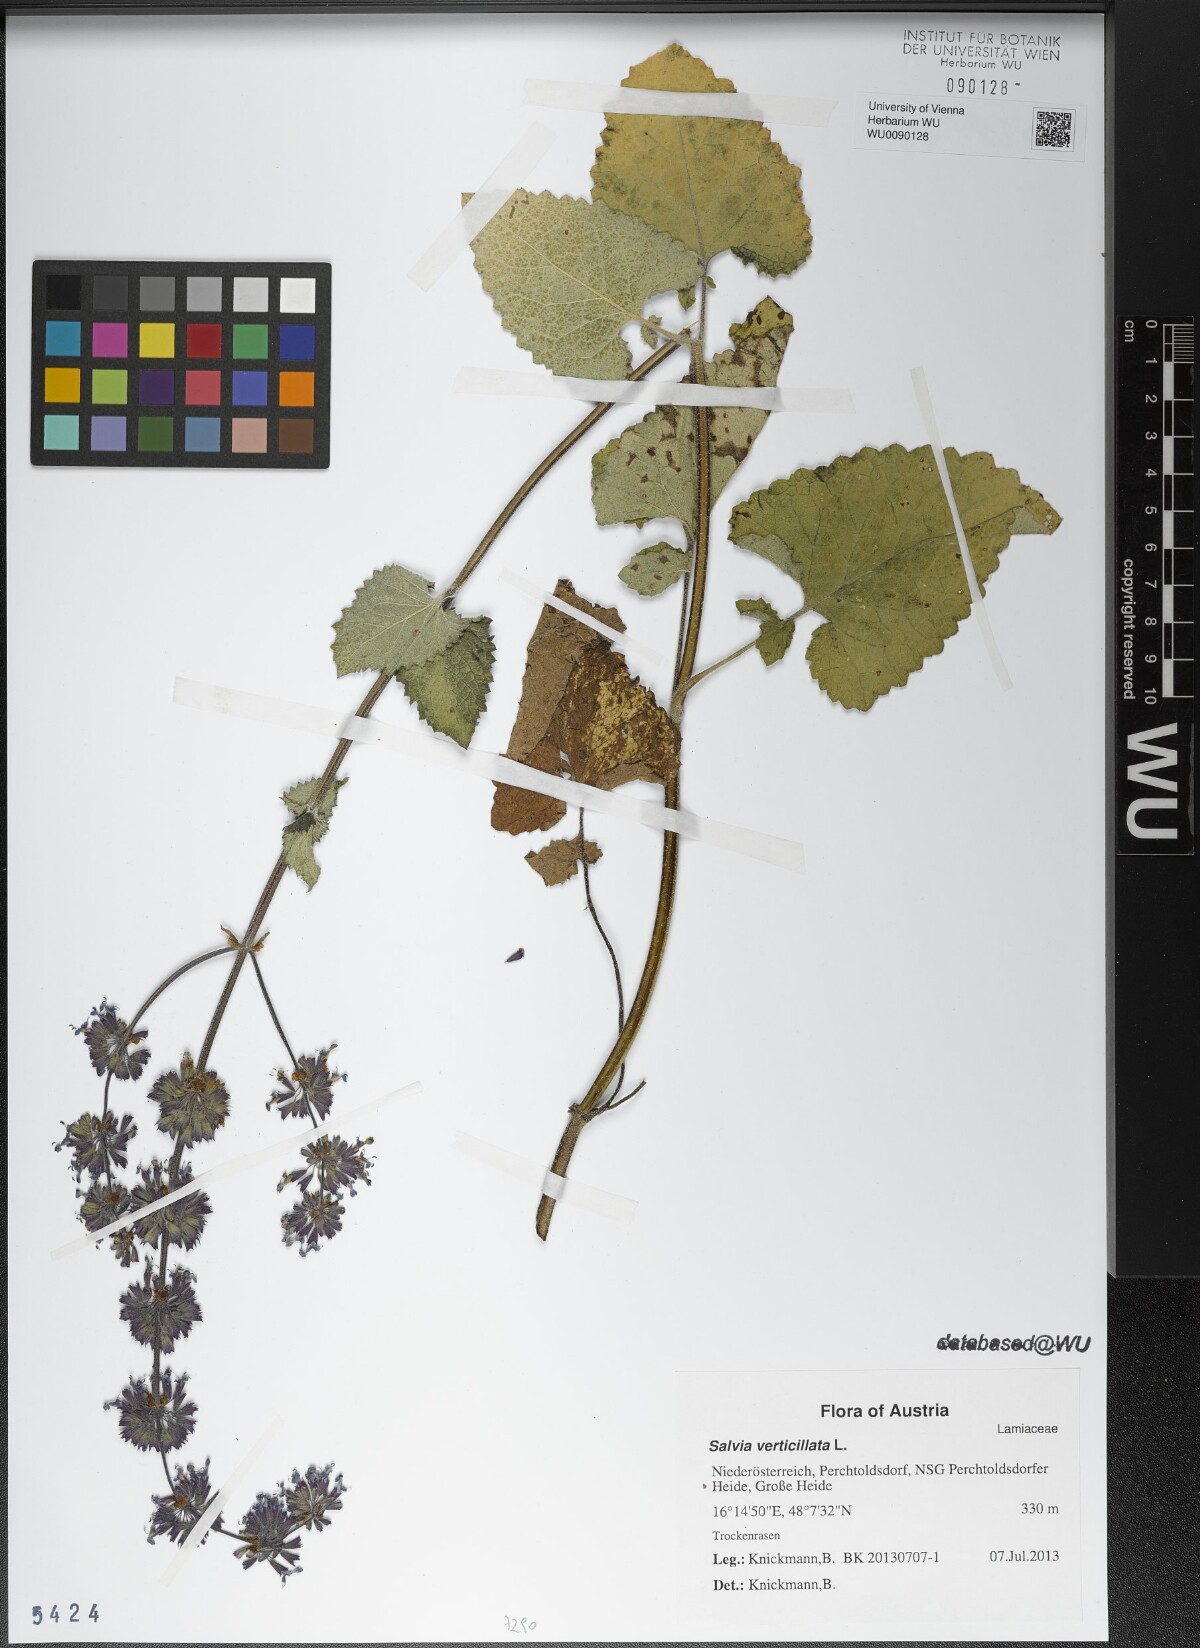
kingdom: Plantae
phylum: Tracheophyta
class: Magnoliopsida
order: Lamiales
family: Lamiaceae
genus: Salvia
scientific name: Salvia verticillata
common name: Whorled clary
